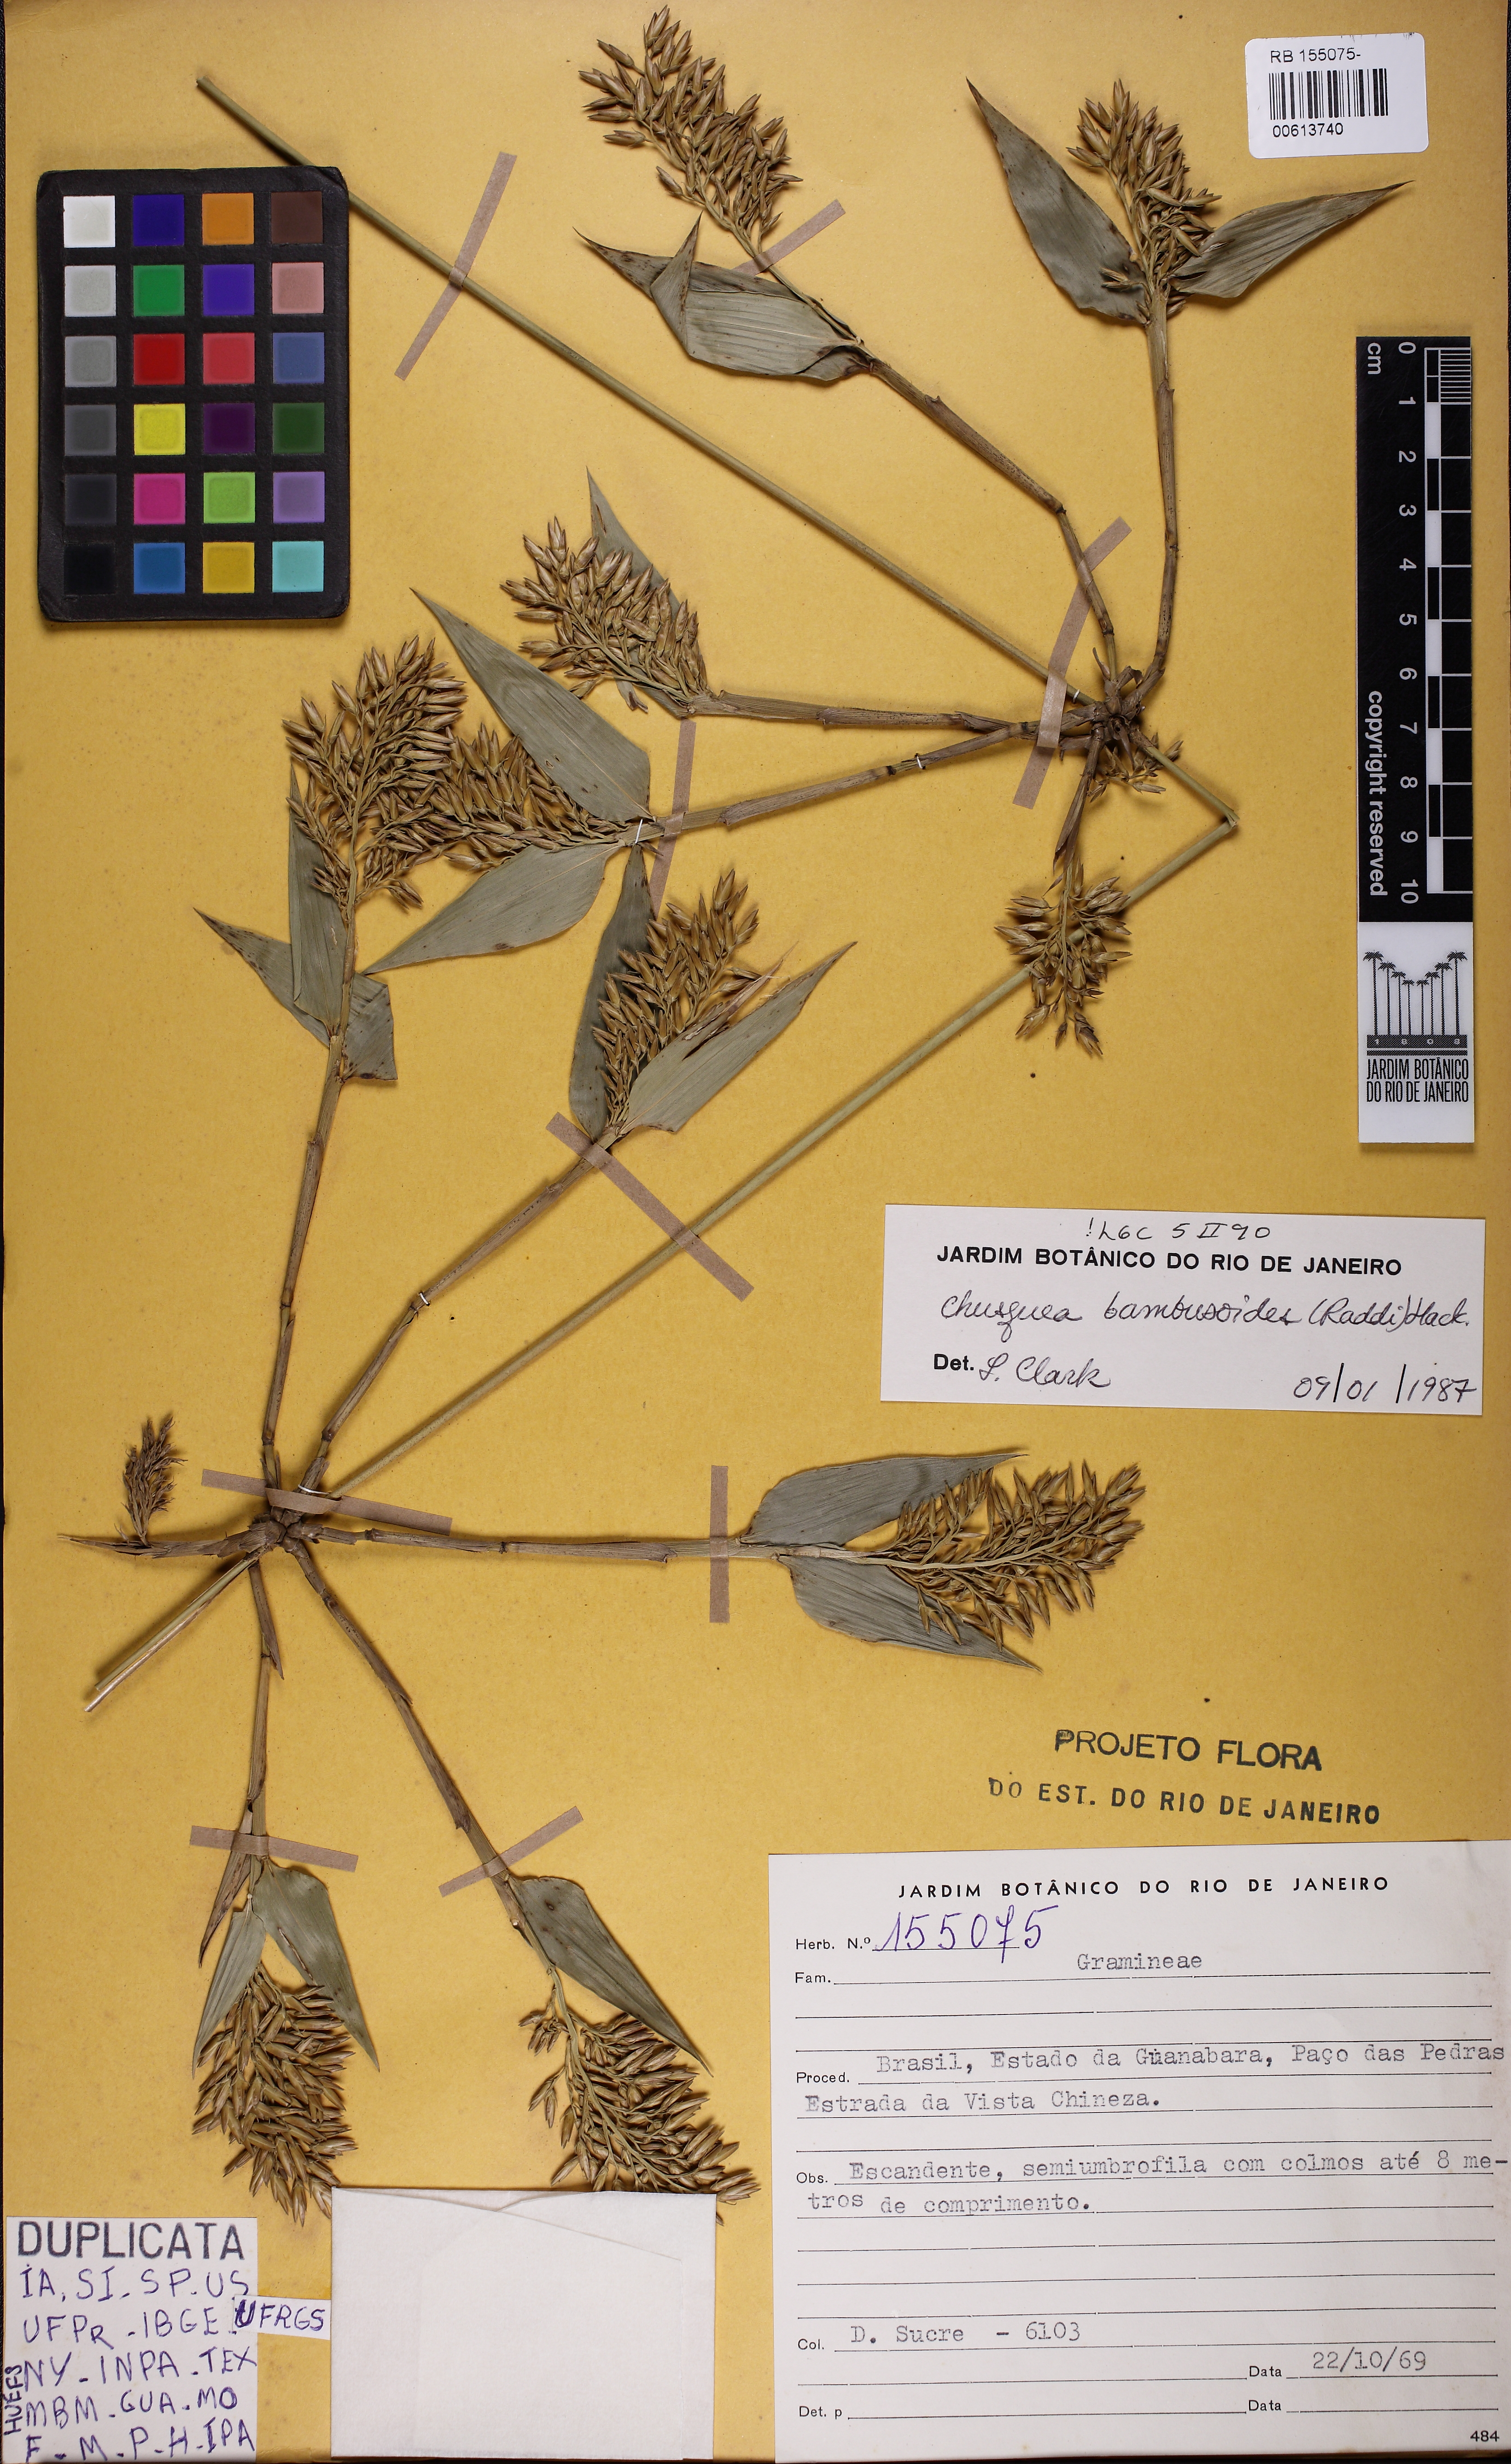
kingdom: Plantae
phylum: Tracheophyta
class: Liliopsida
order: Poales
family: Poaceae
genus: Chusquea
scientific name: Chusquea bambusoides
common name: Brazil scrambling bamboo
